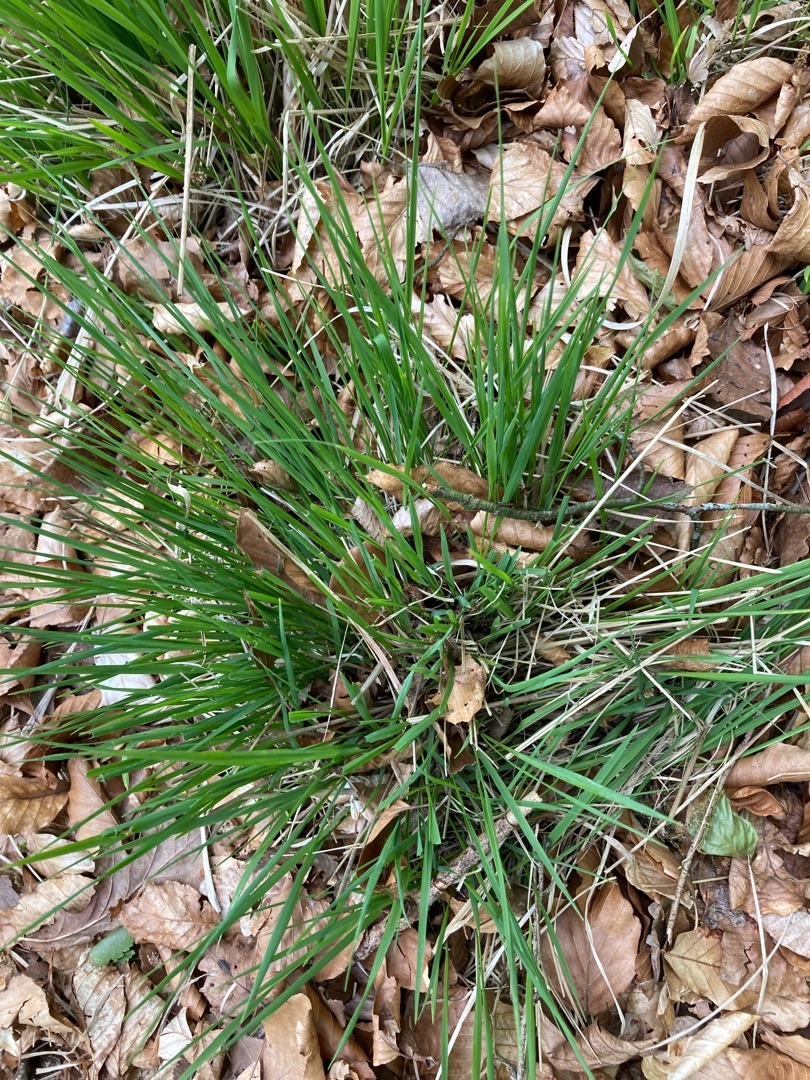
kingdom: Plantae
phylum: Tracheophyta
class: Liliopsida
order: Poales
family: Poaceae
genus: Molinia
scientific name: Molinia caerulea
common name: Blåtop
